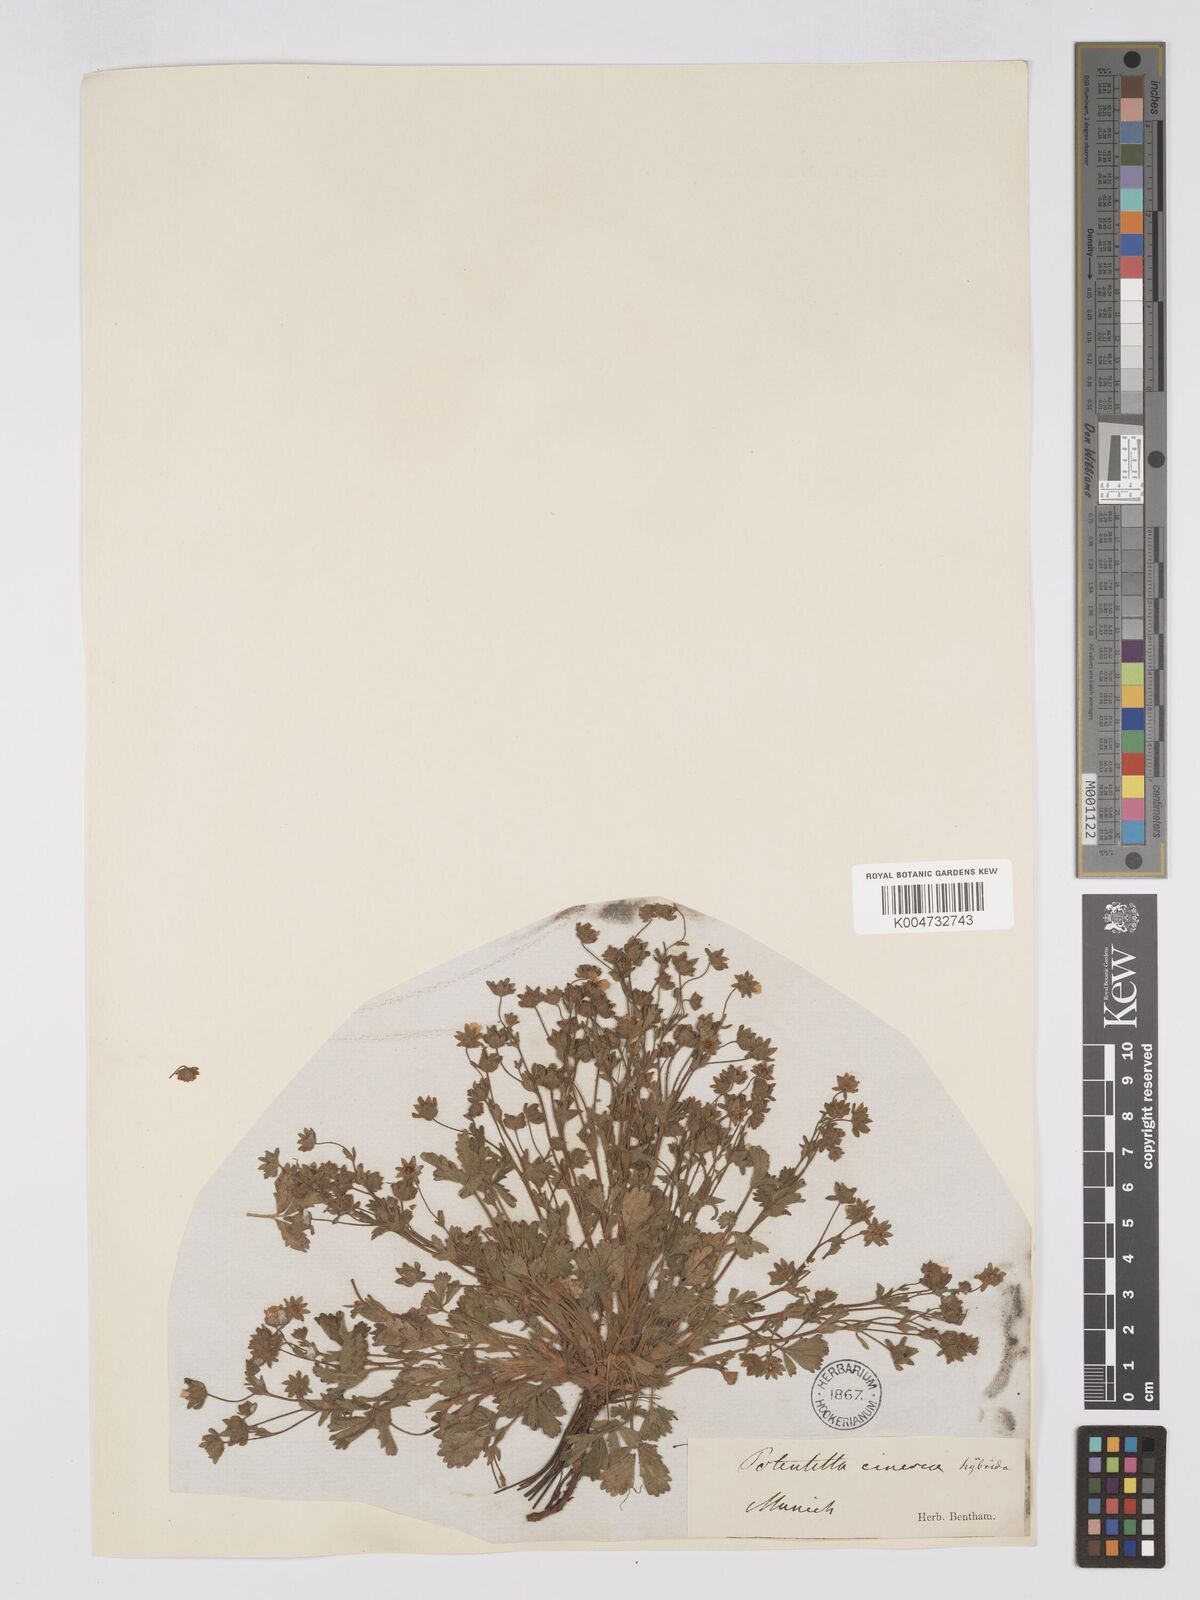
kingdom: Plantae
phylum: Tracheophyta
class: Magnoliopsida
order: Rosales
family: Rosaceae
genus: Potentilla
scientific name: Potentilla
